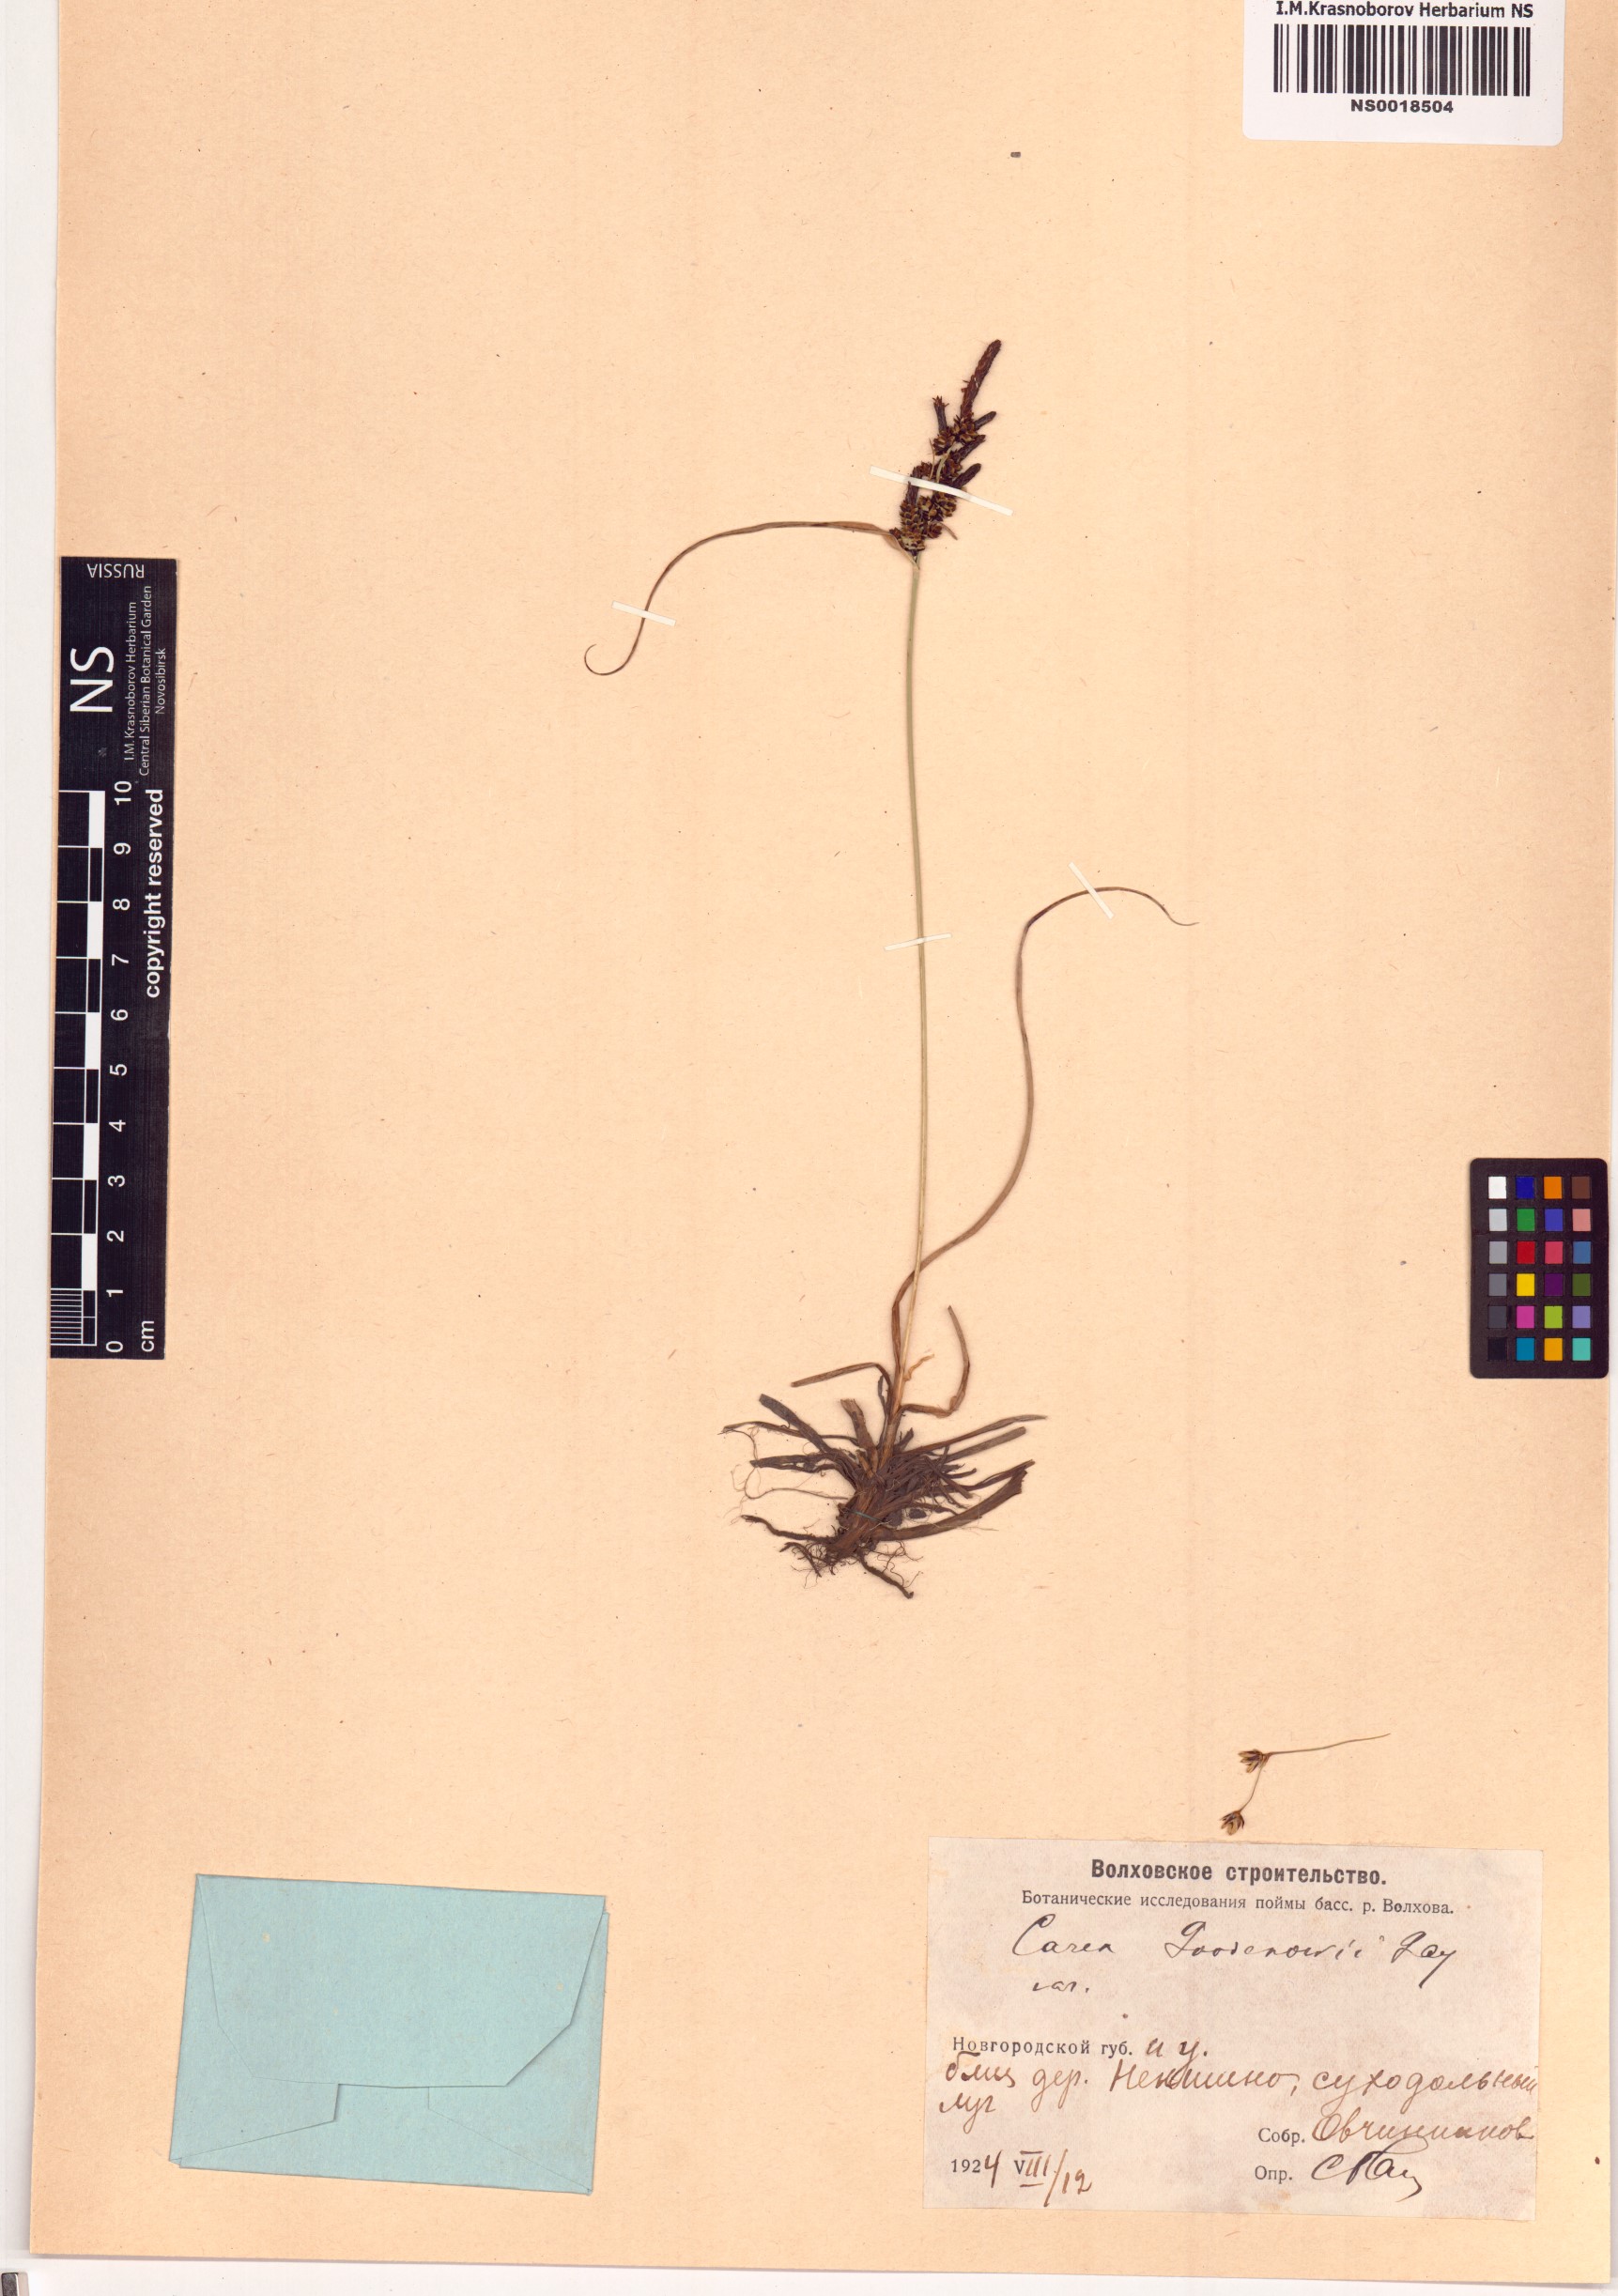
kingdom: Plantae
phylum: Tracheophyta
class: Liliopsida
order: Poales
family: Cyperaceae
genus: Carex
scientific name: Carex nigra
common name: Common sedge
